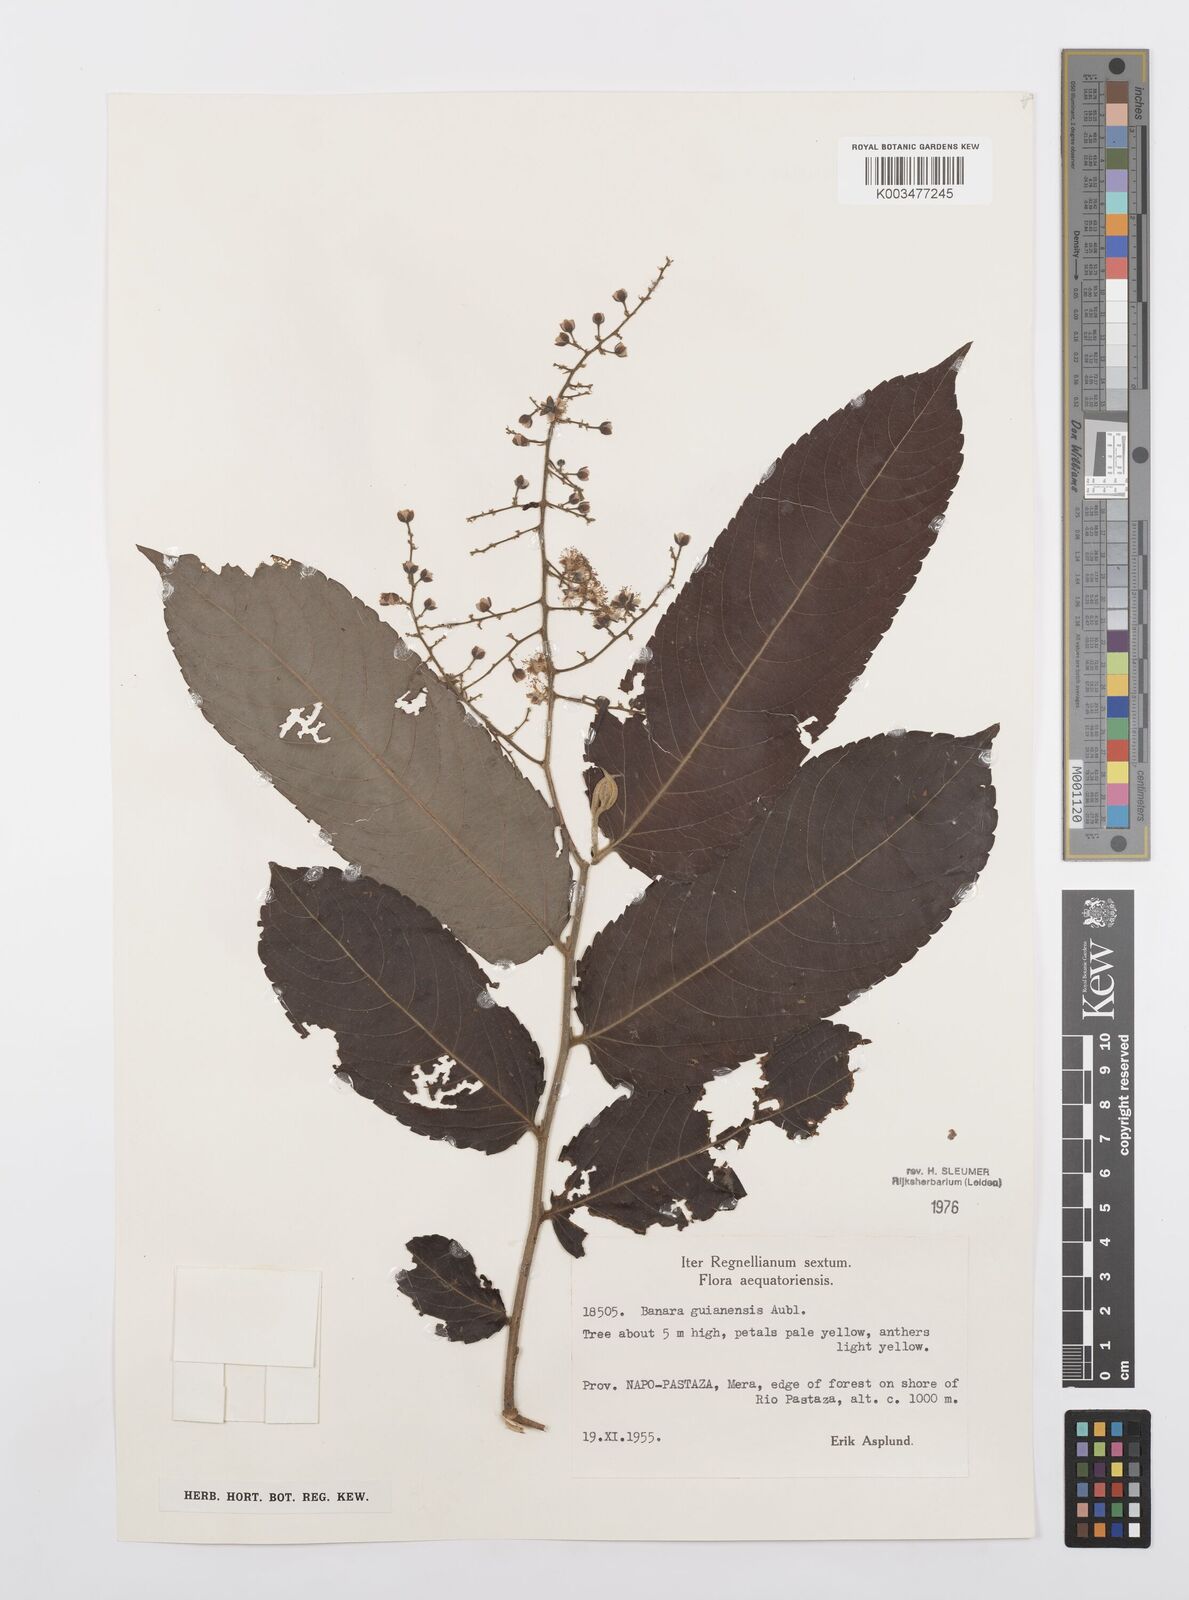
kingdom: Plantae
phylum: Tracheophyta
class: Magnoliopsida
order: Malpighiales
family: Salicaceae
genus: Banara
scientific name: Banara guianensis
